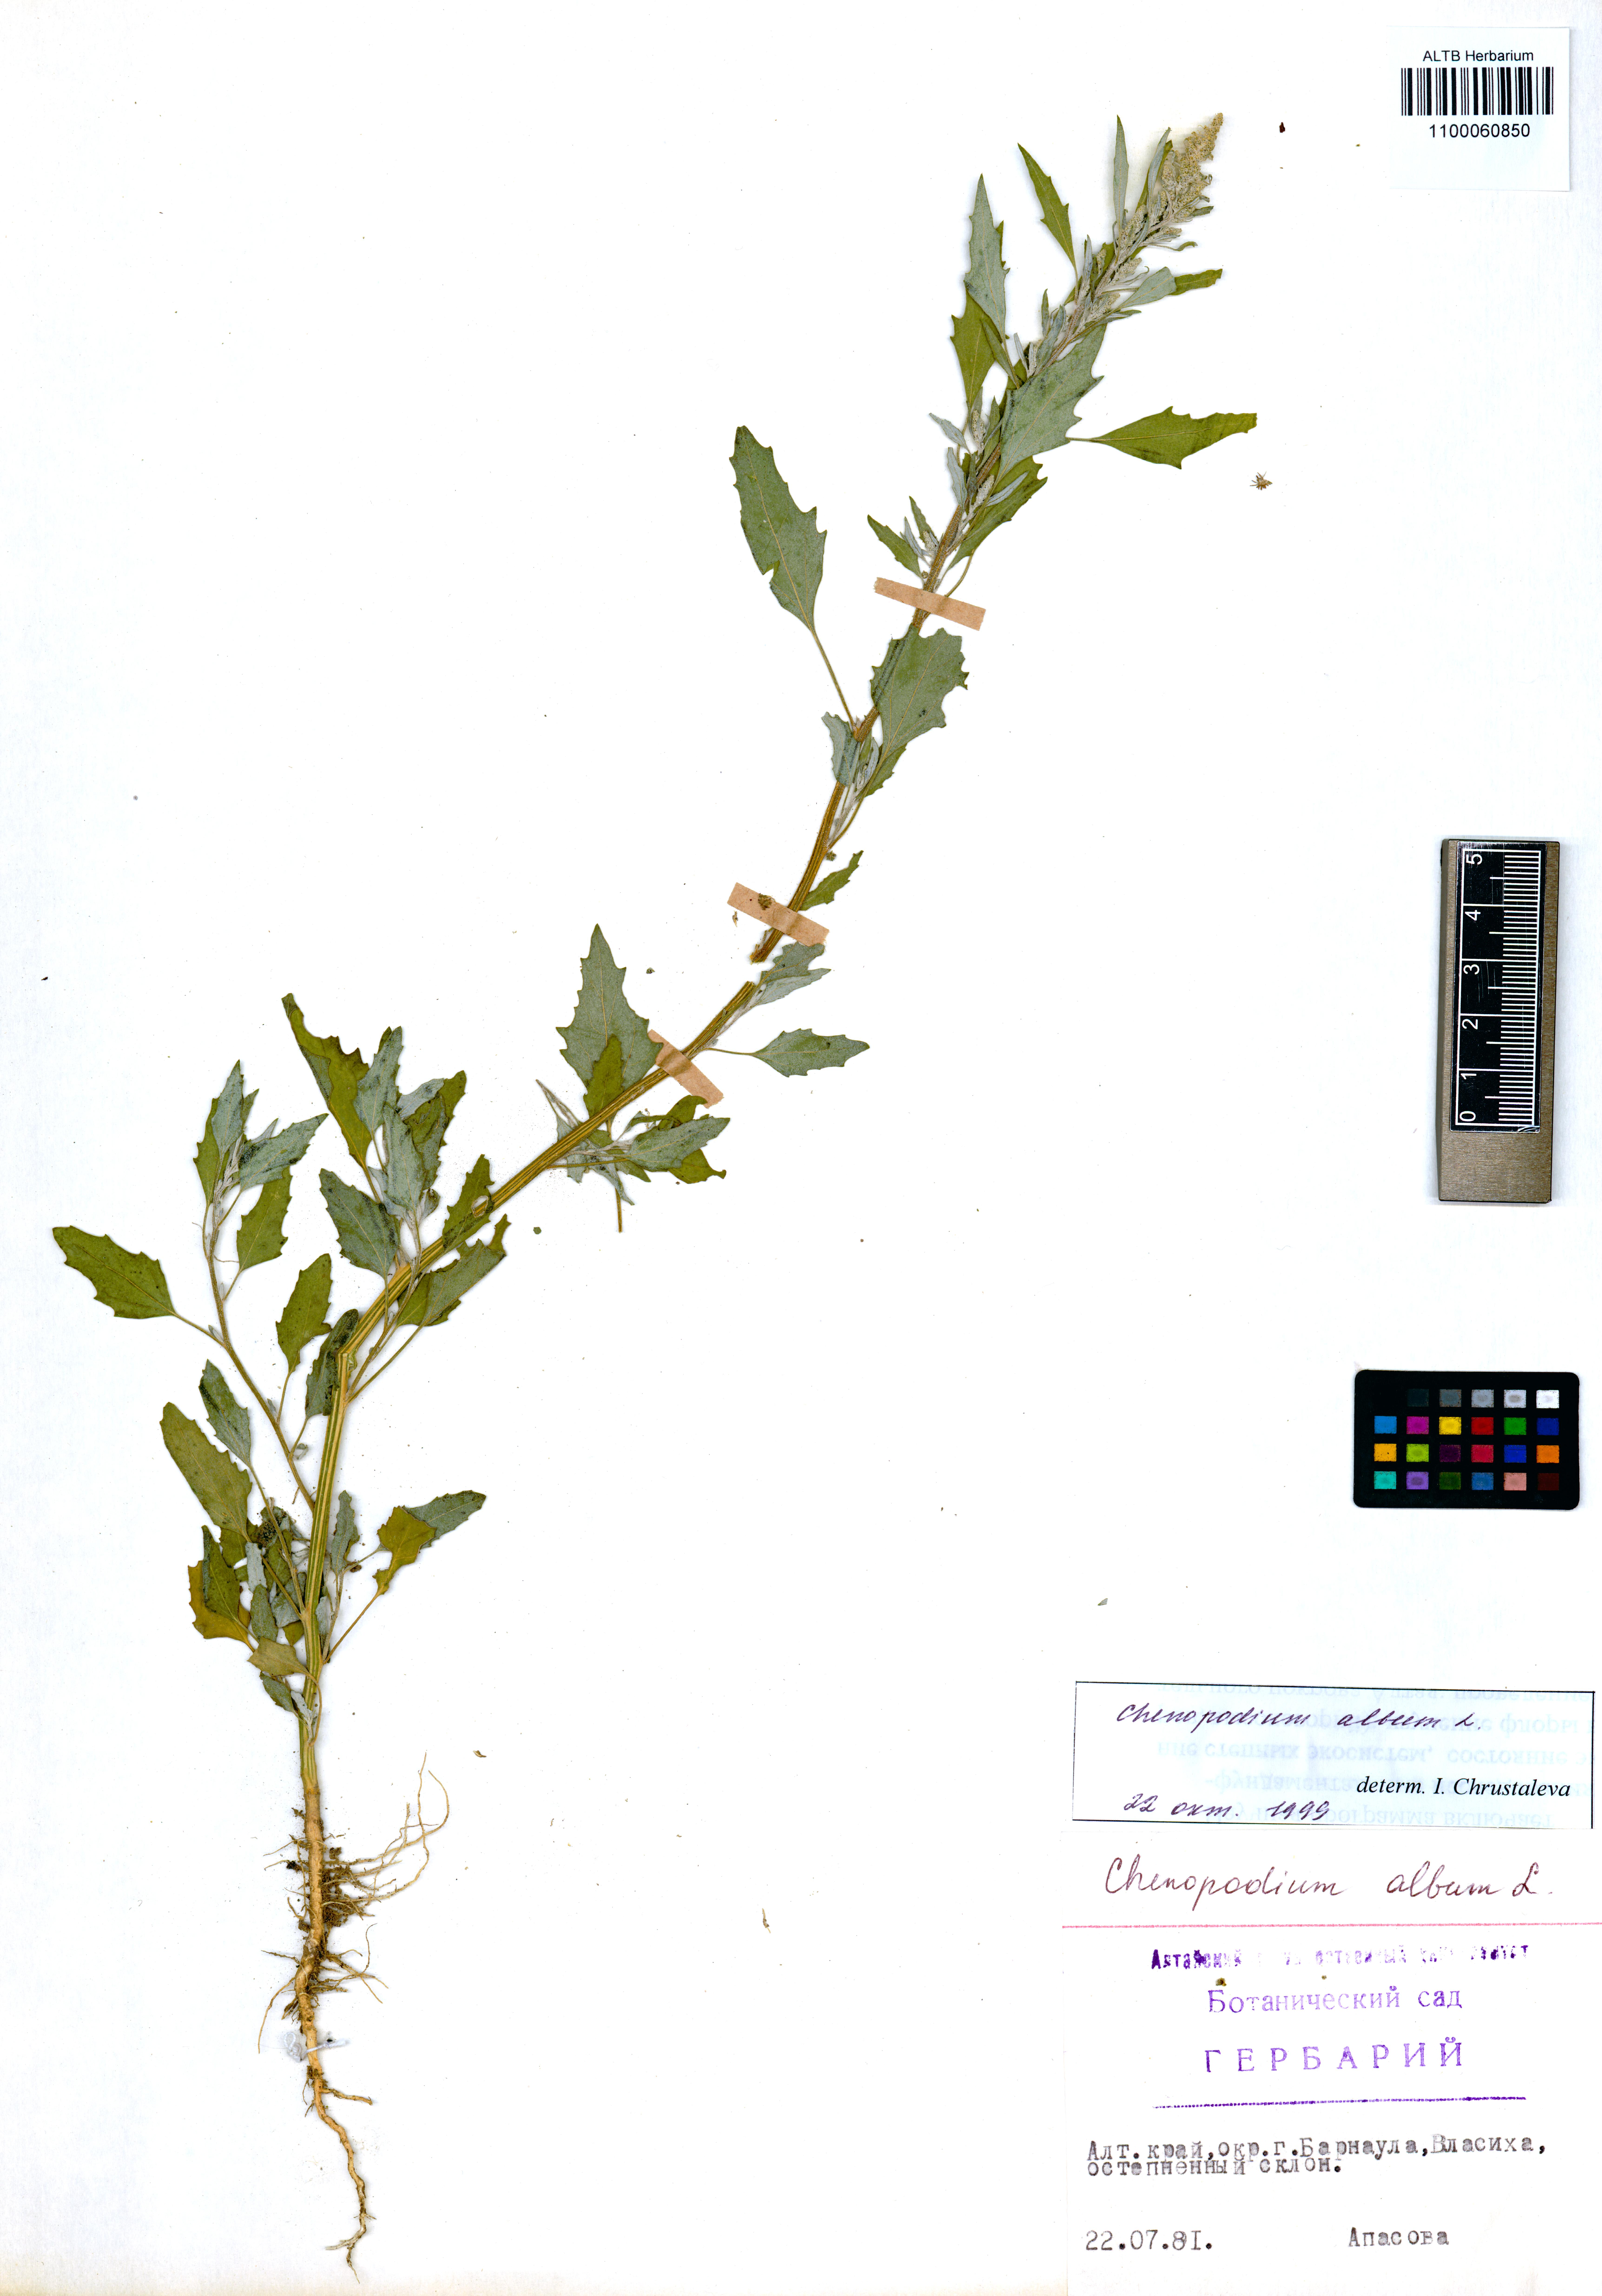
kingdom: Plantae
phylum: Tracheophyta
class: Magnoliopsida
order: Caryophyllales
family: Amaranthaceae
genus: Chenopodium
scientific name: Chenopodium album
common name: Fat-hen
